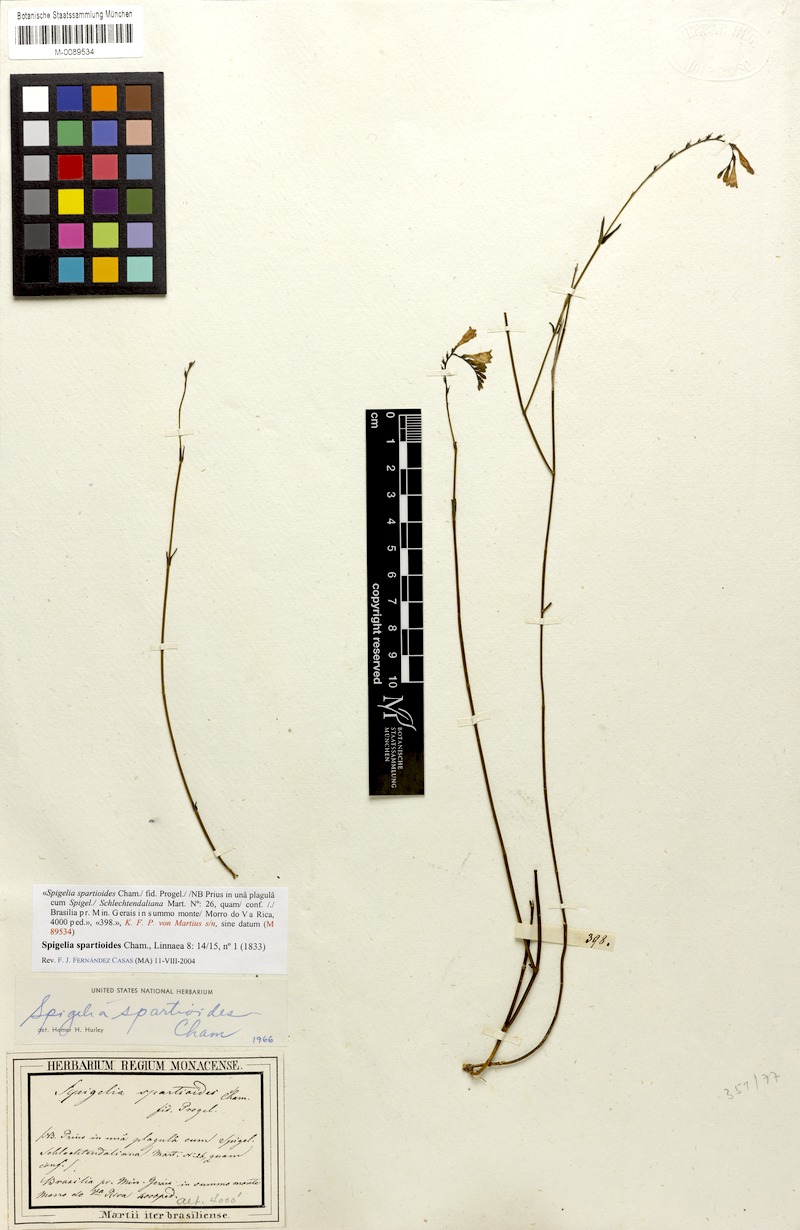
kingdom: Plantae
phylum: Tracheophyta
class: Magnoliopsida
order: Gentianales
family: Loganiaceae
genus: Spigelia
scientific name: Spigelia spartioides
